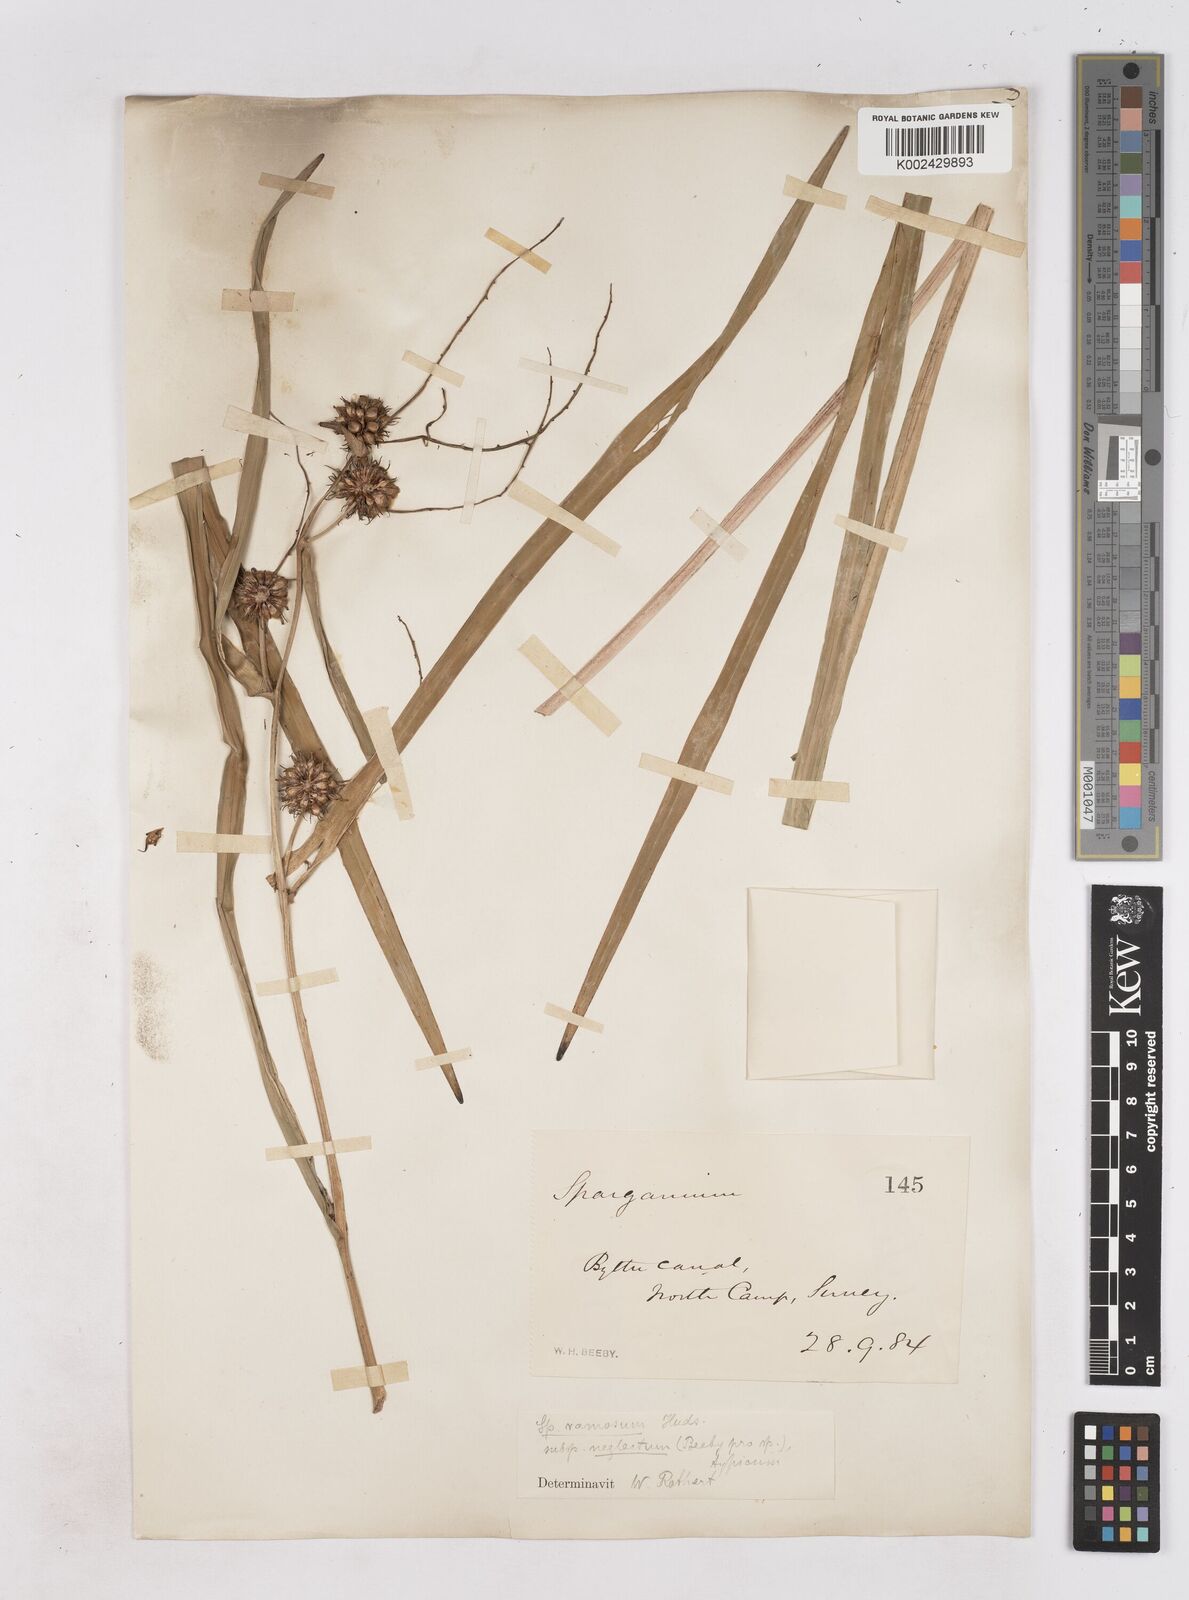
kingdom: Plantae
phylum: Tracheophyta
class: Liliopsida
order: Poales
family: Typhaceae
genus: Sparganium
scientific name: Sparganium erectum
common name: Branched bur-reed
